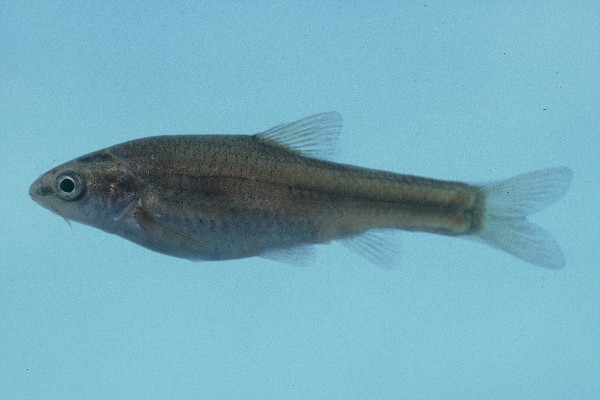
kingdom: Animalia
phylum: Chordata
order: Cypriniformes
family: Cyprinidae
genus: Enteromius
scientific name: Enteromius amatolicus
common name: Amatola barb
